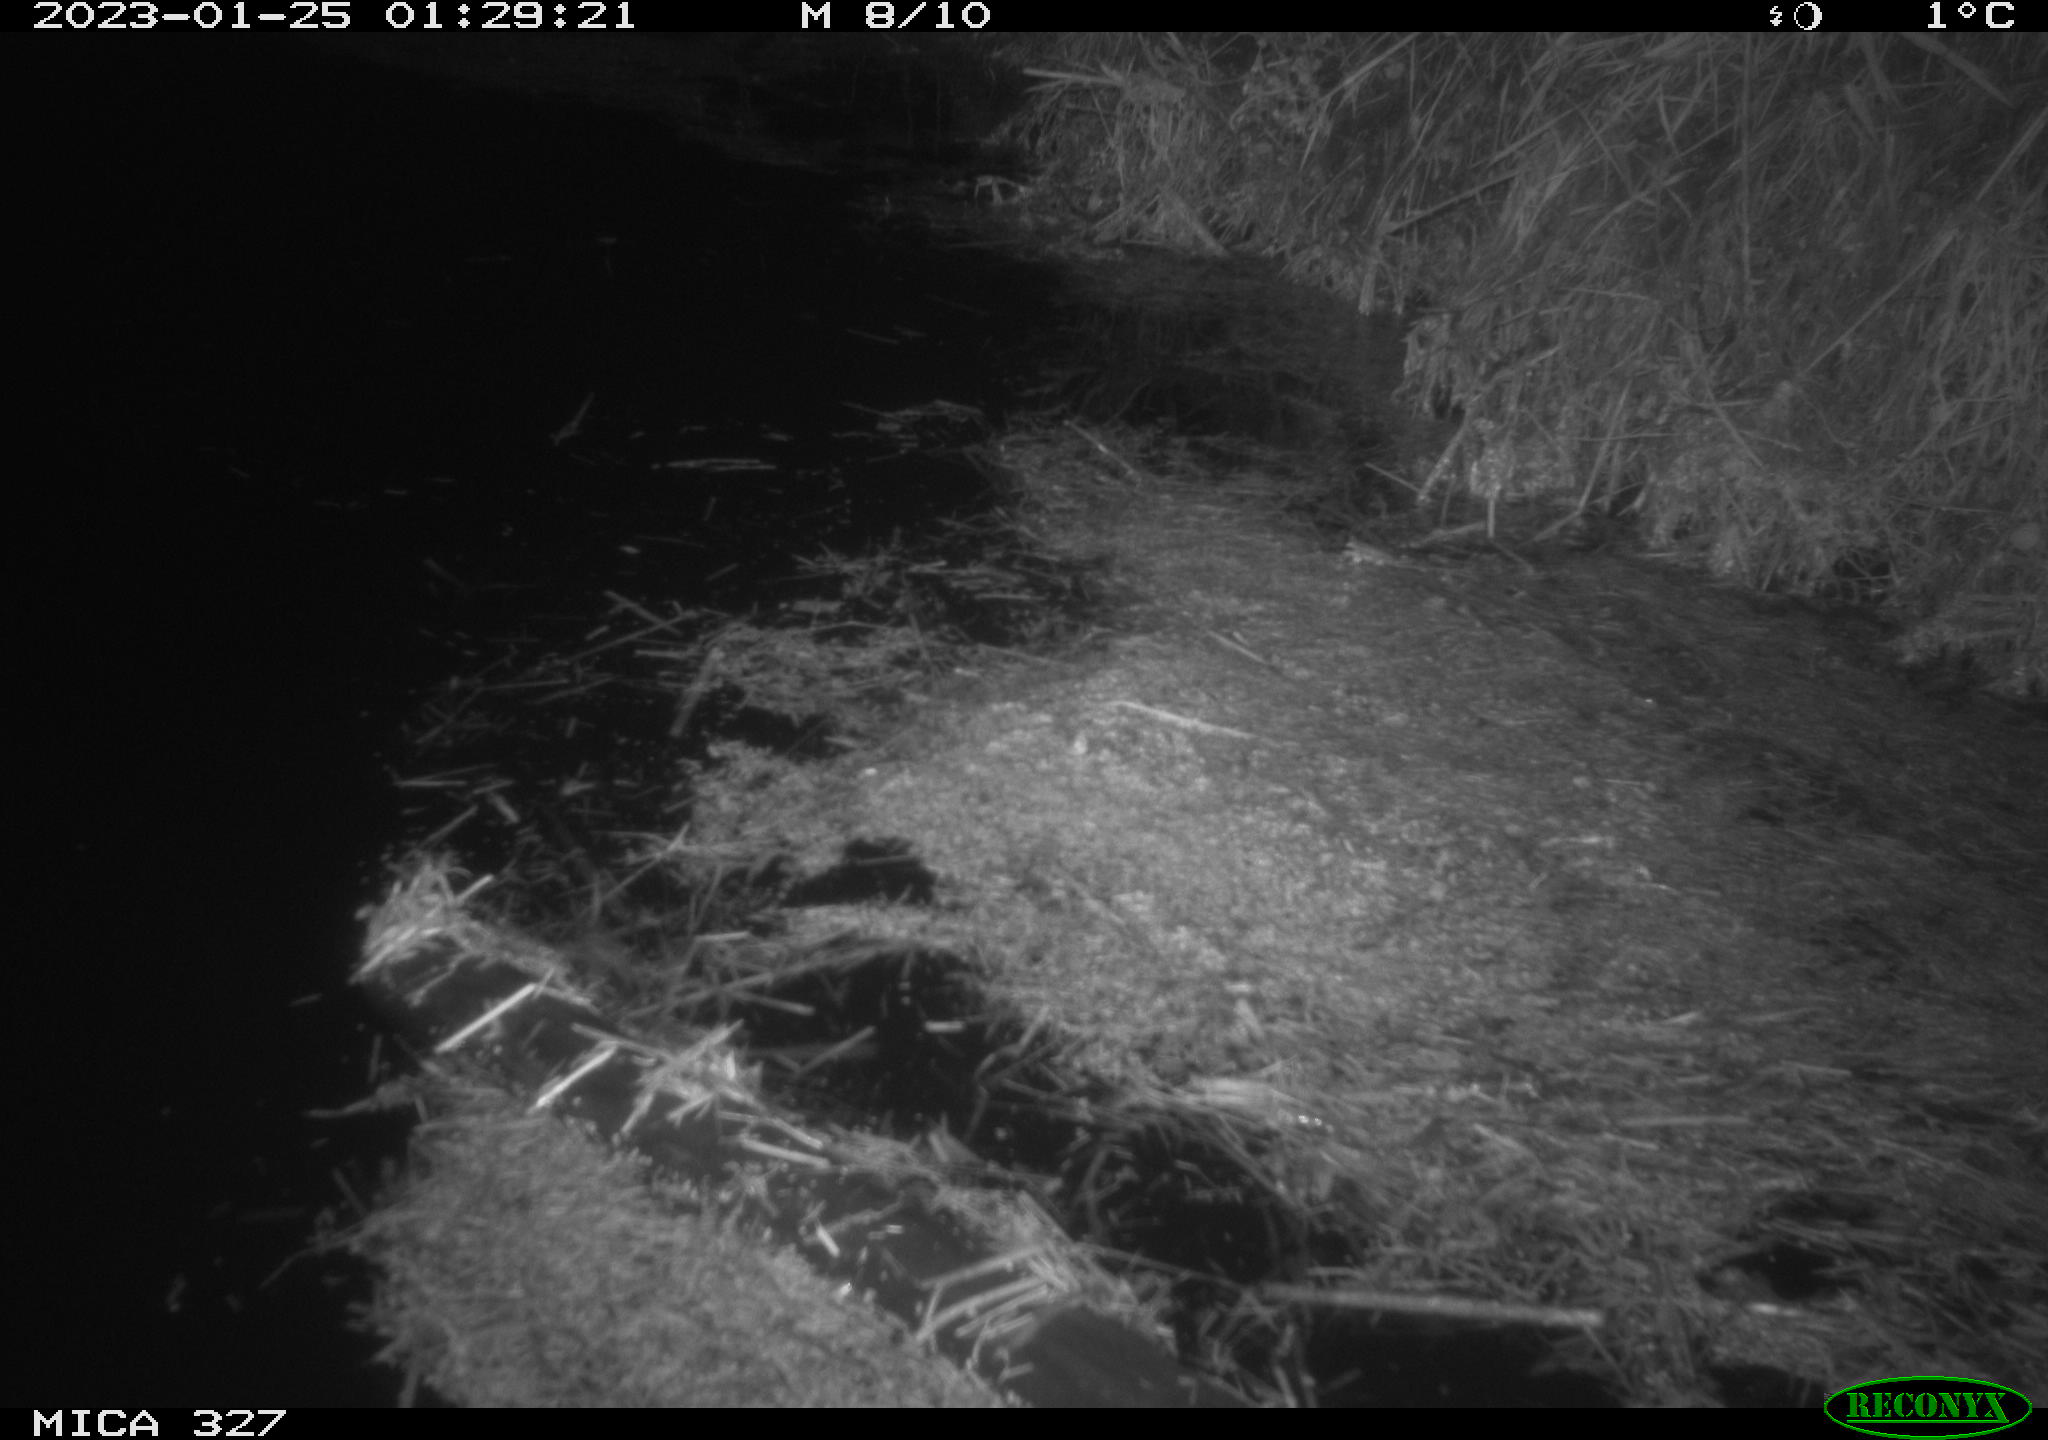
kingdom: Animalia
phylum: Chordata
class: Mammalia
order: Rodentia
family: Cricetidae
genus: Ondatra
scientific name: Ondatra zibethicus
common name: Muskrat
